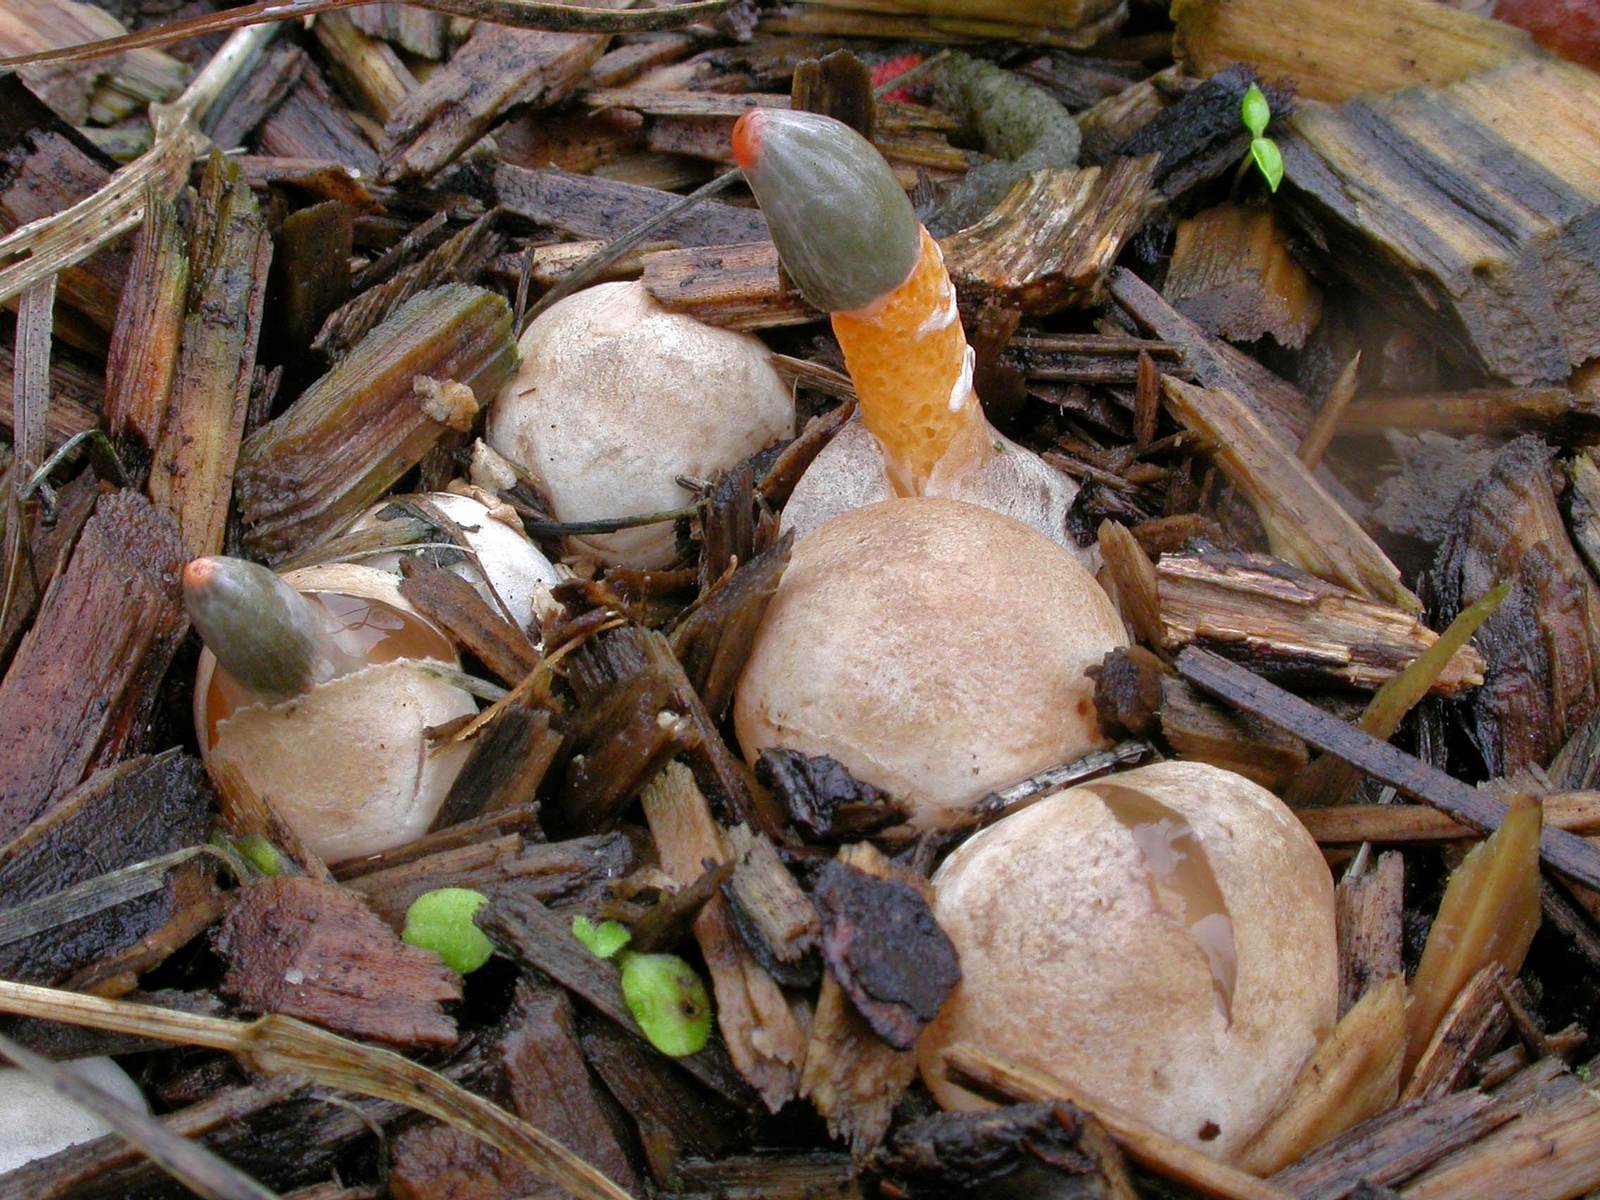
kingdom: Fungi
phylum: Basidiomycota
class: Agaricomycetes
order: Phallales
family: Phallaceae
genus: Mutinus
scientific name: Mutinus caninus
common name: hunde-stinksvamp
